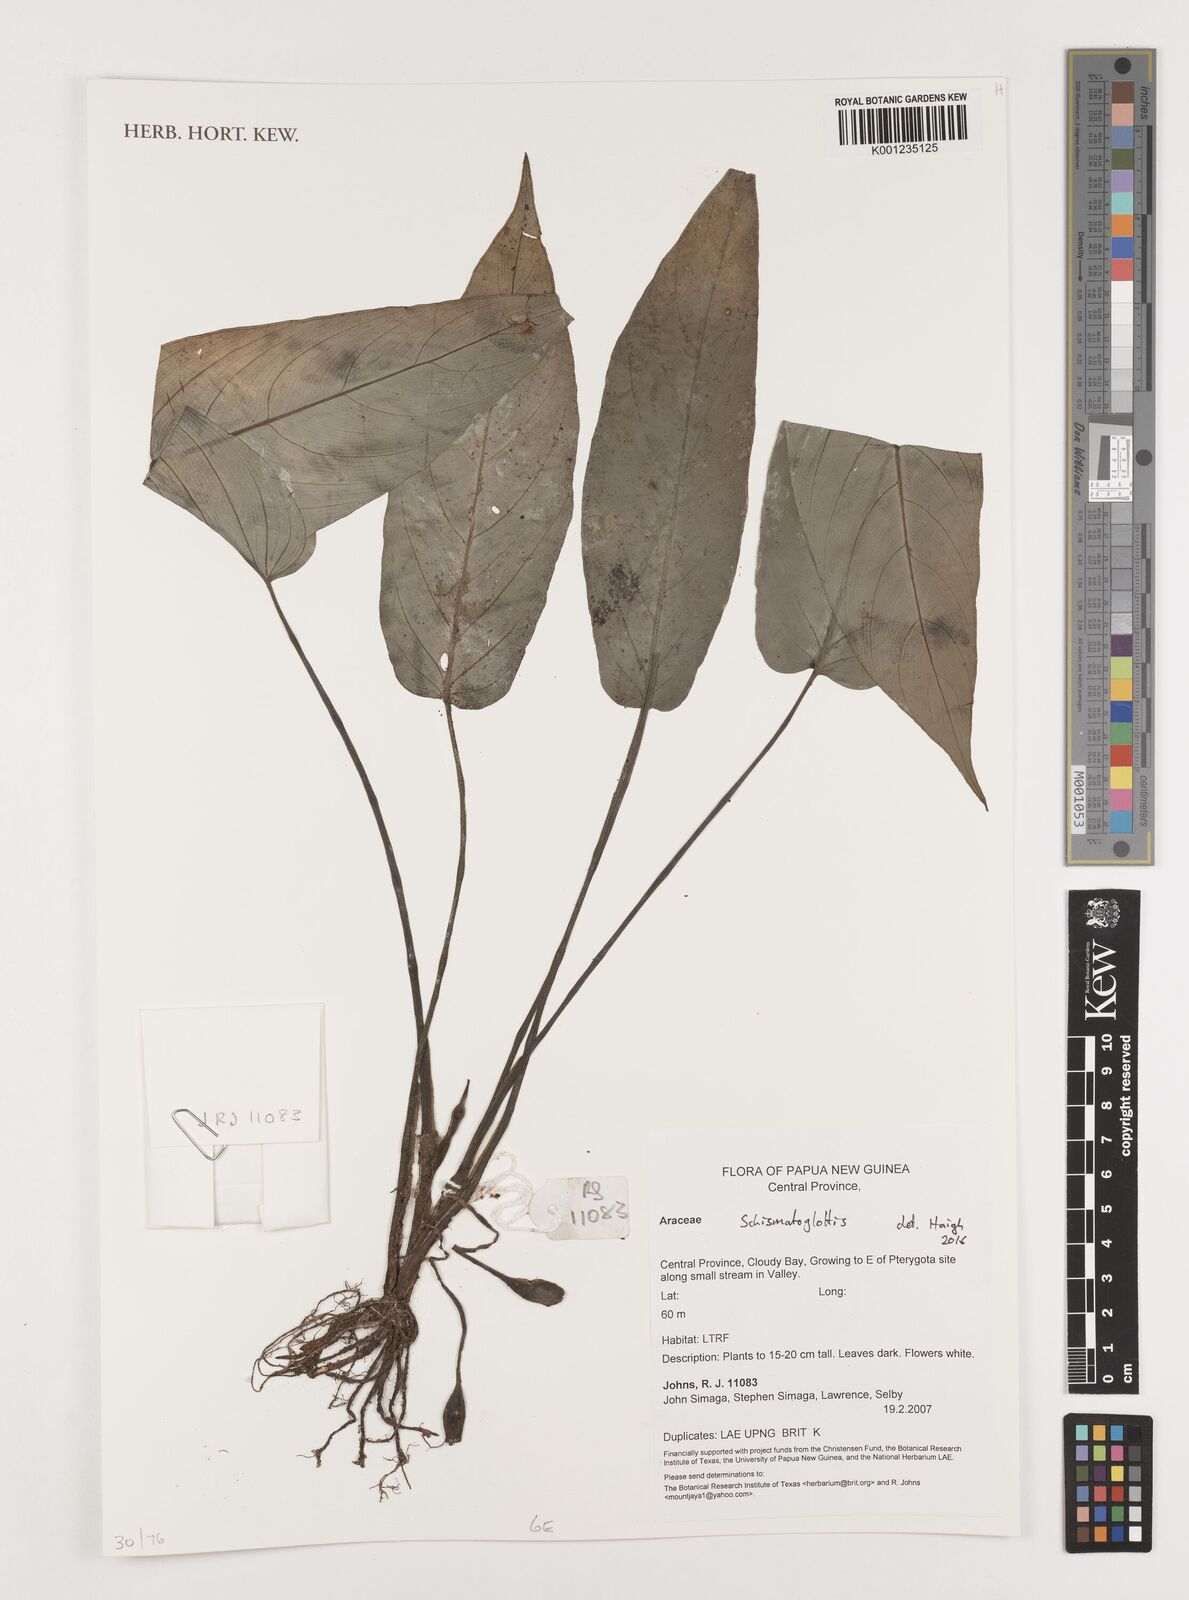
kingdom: Plantae
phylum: Tracheophyta
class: Liliopsida
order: Alismatales
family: Araceae
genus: Schismatoglottis
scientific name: Schismatoglottis
